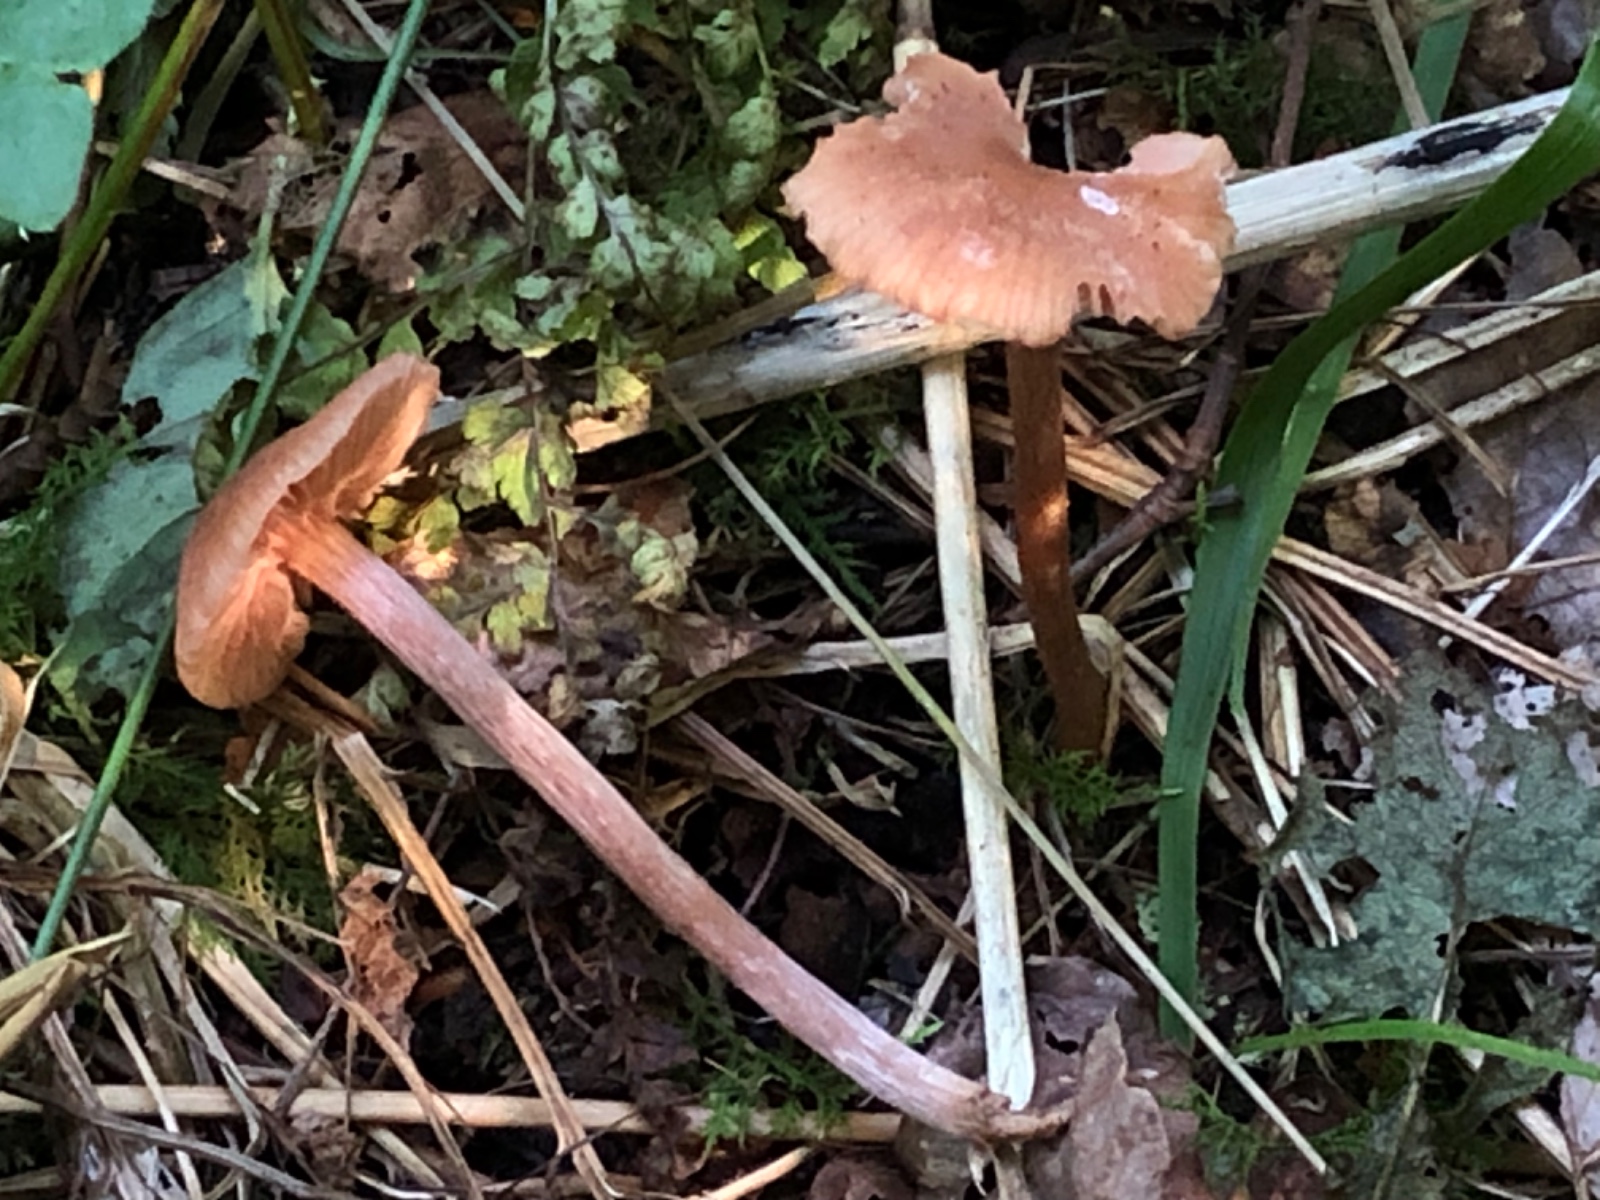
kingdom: Fungi
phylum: Basidiomycota
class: Agaricomycetes
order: Agaricales
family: Hydnangiaceae
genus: Laccaria
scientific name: Laccaria
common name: ametysthat
